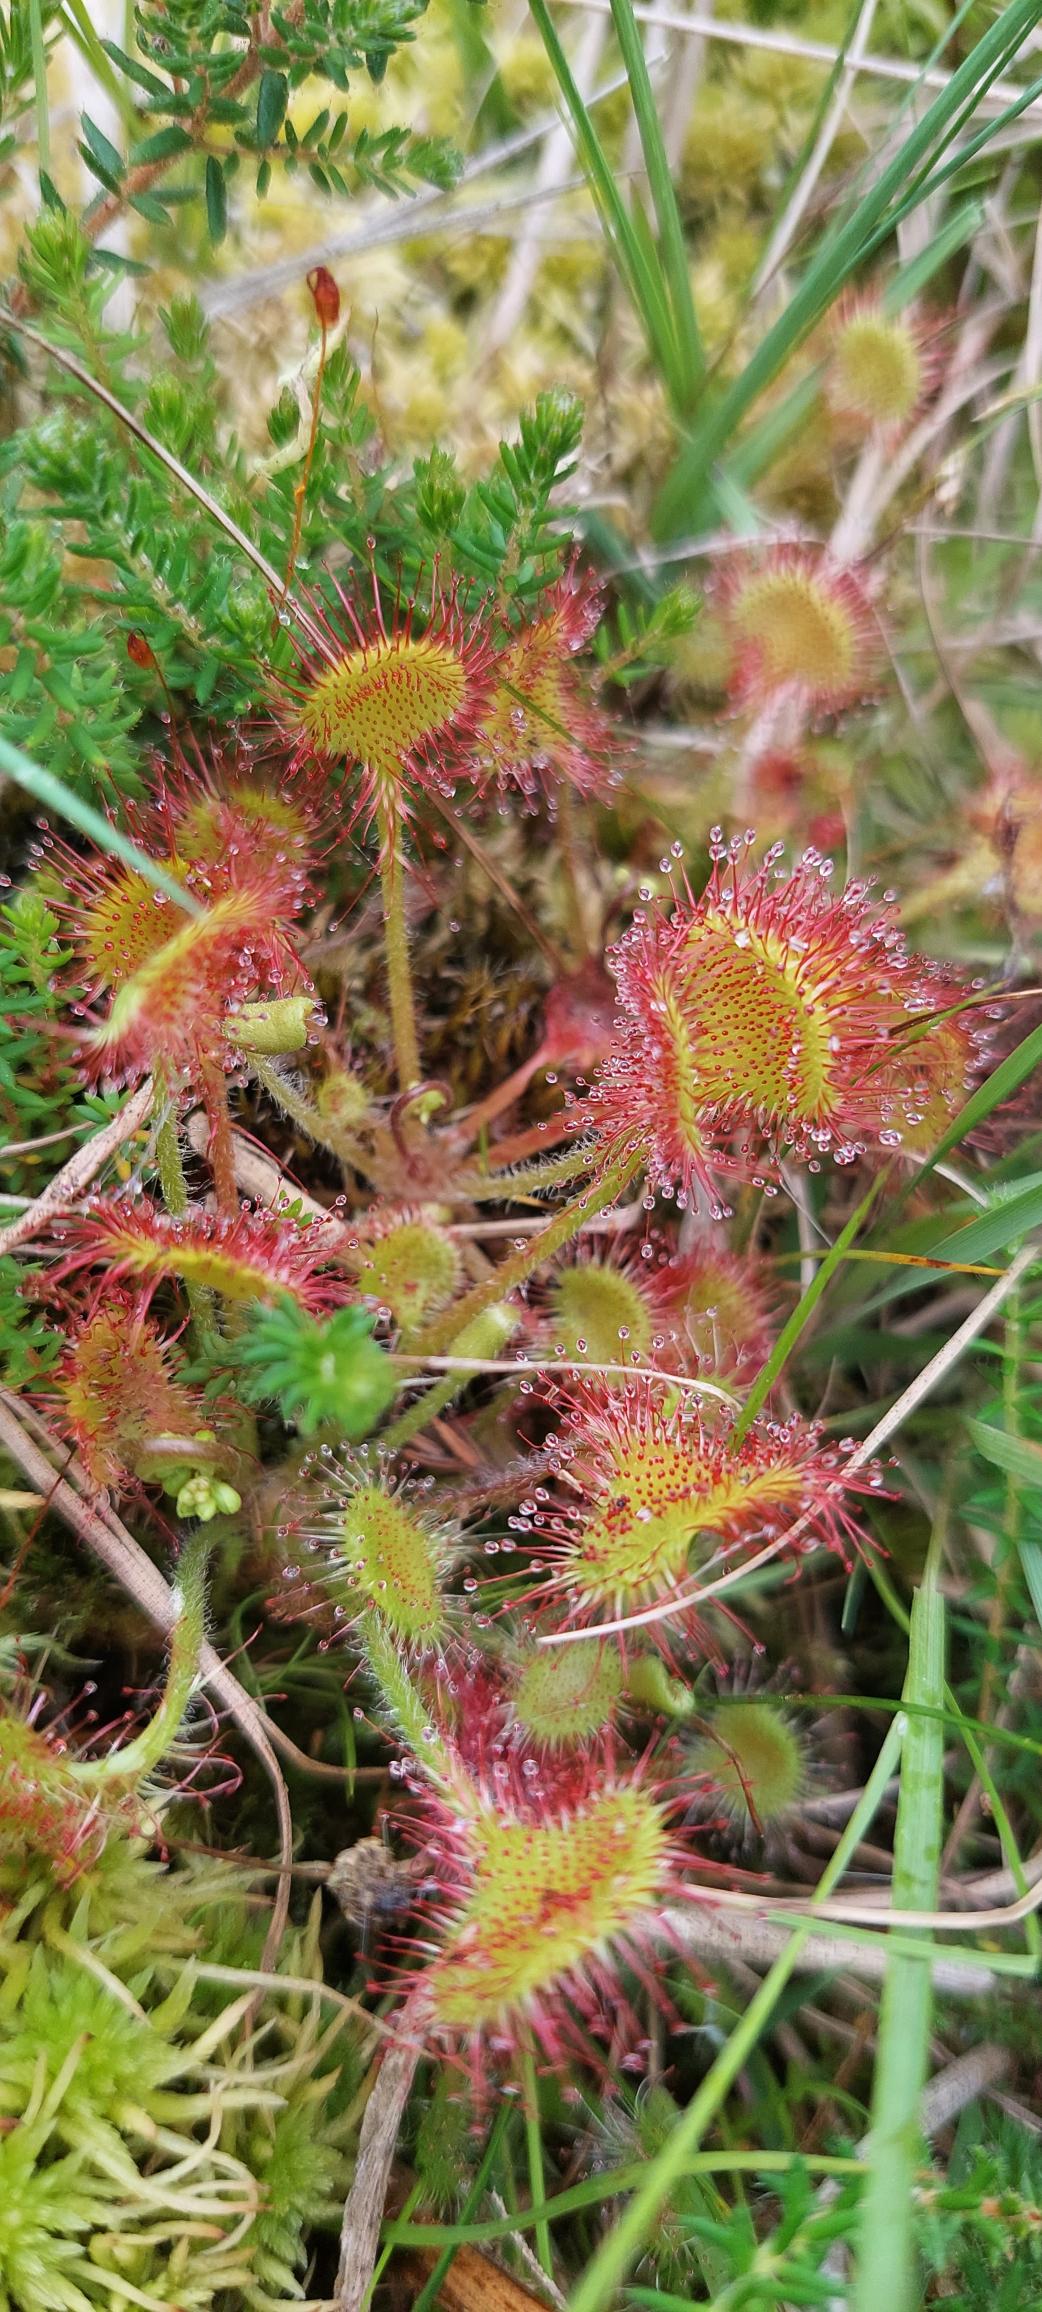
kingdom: Plantae
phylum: Tracheophyta
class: Magnoliopsida
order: Caryophyllales
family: Droseraceae
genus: Drosera
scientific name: Drosera rotundifolia
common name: Rundbladet soldug
